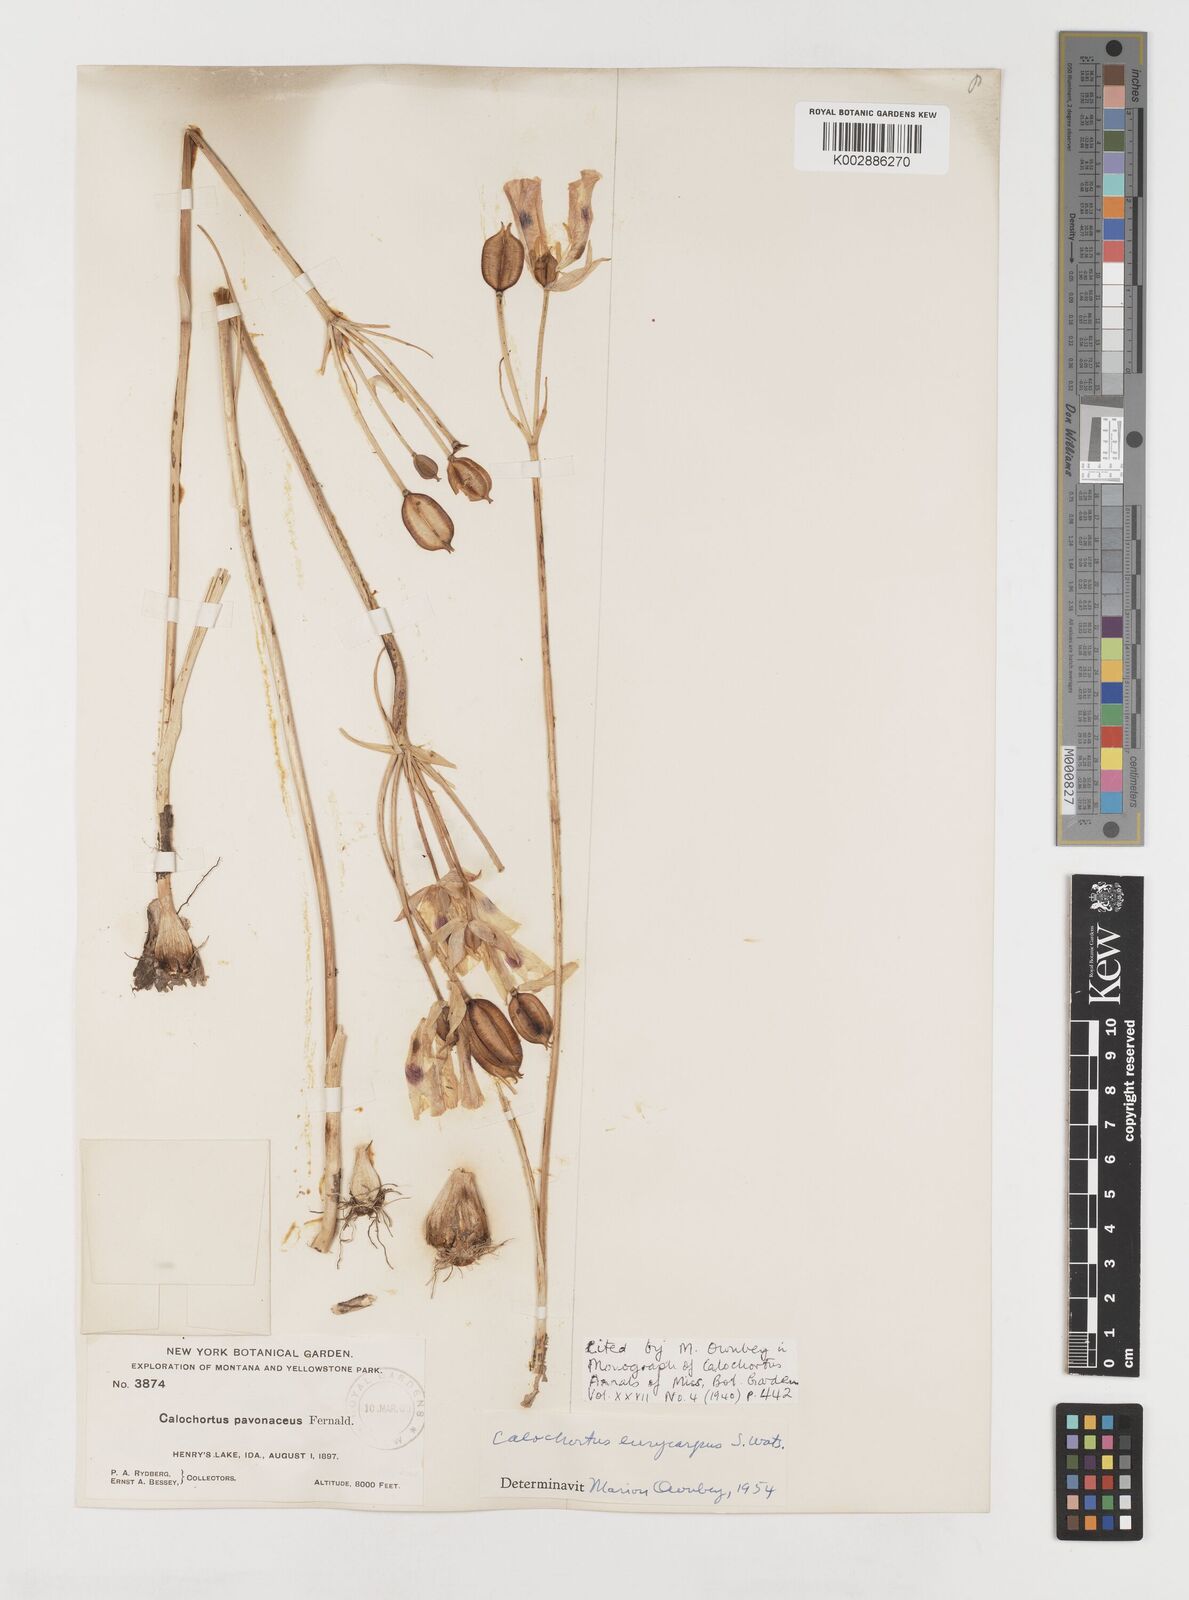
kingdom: Plantae
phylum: Tracheophyta
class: Liliopsida
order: Liliales
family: Liliaceae
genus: Calochortus
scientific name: Calochortus eurycarpus
